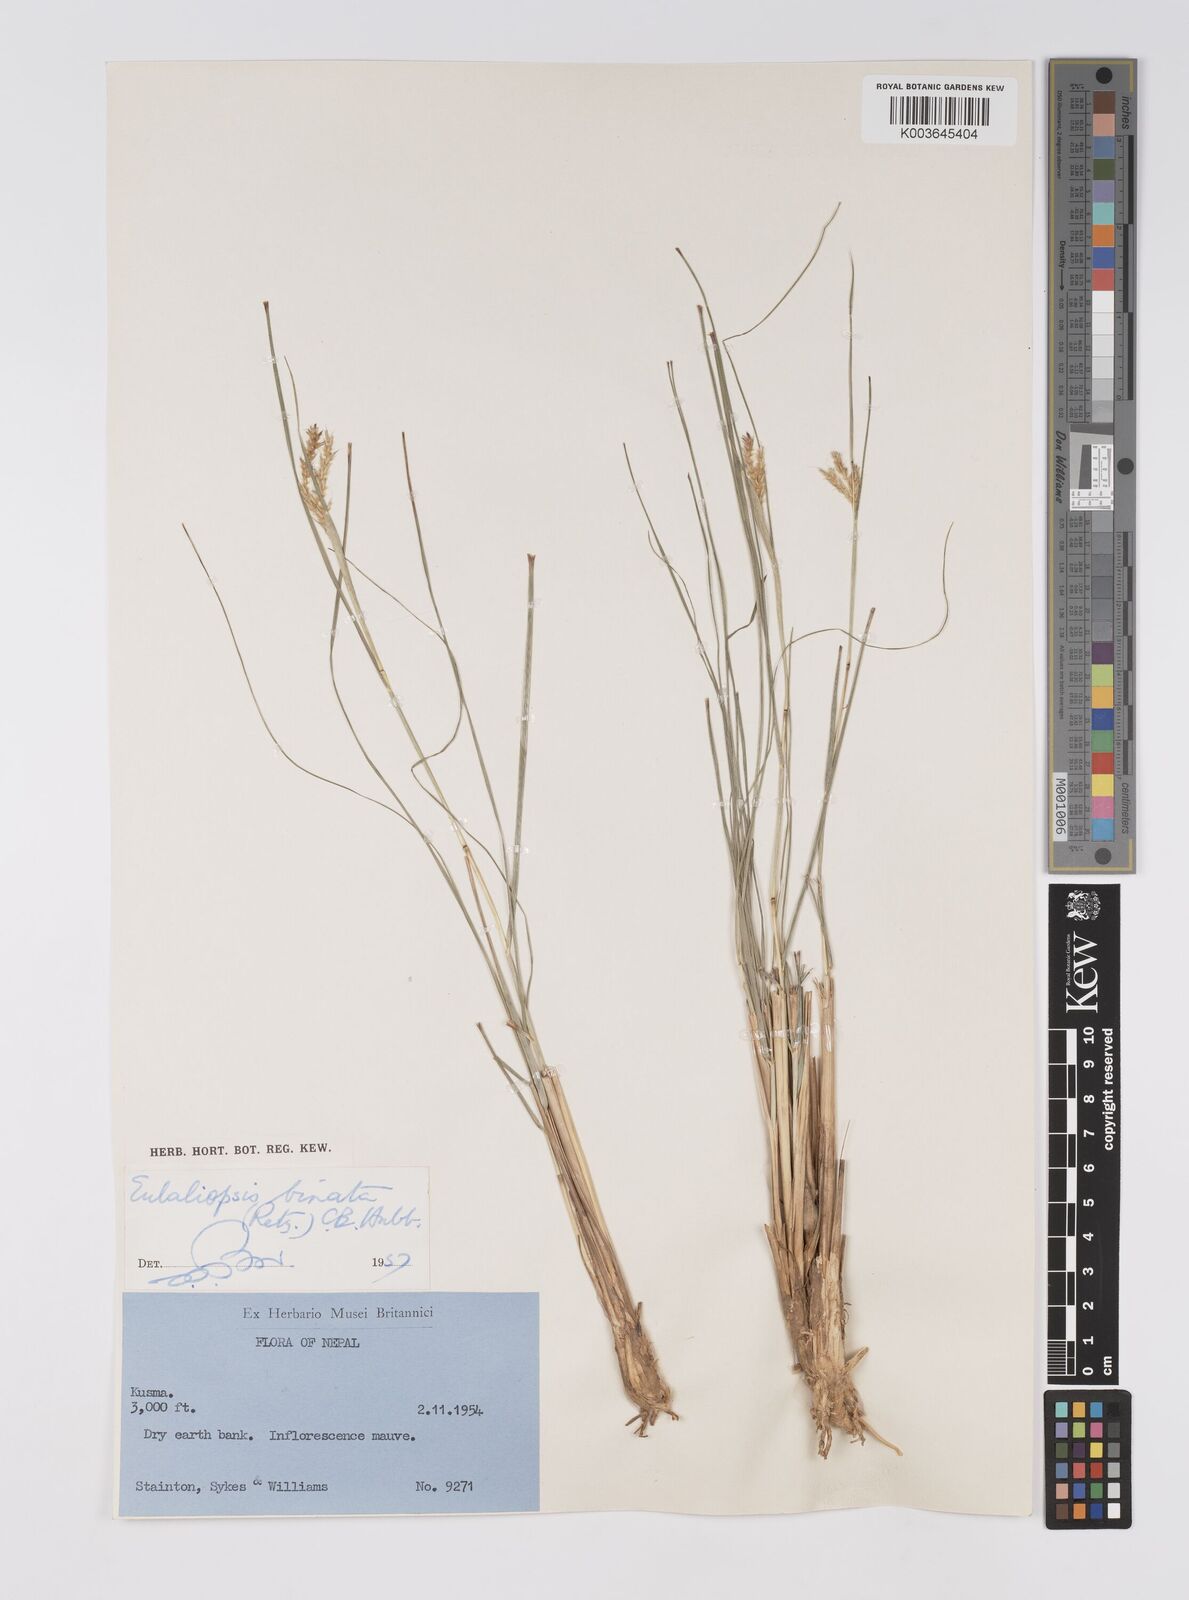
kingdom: Plantae
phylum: Tracheophyta
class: Liliopsida
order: Poales
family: Poaceae
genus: Eulaliopsis
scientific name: Eulaliopsis binata
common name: Baib grass
